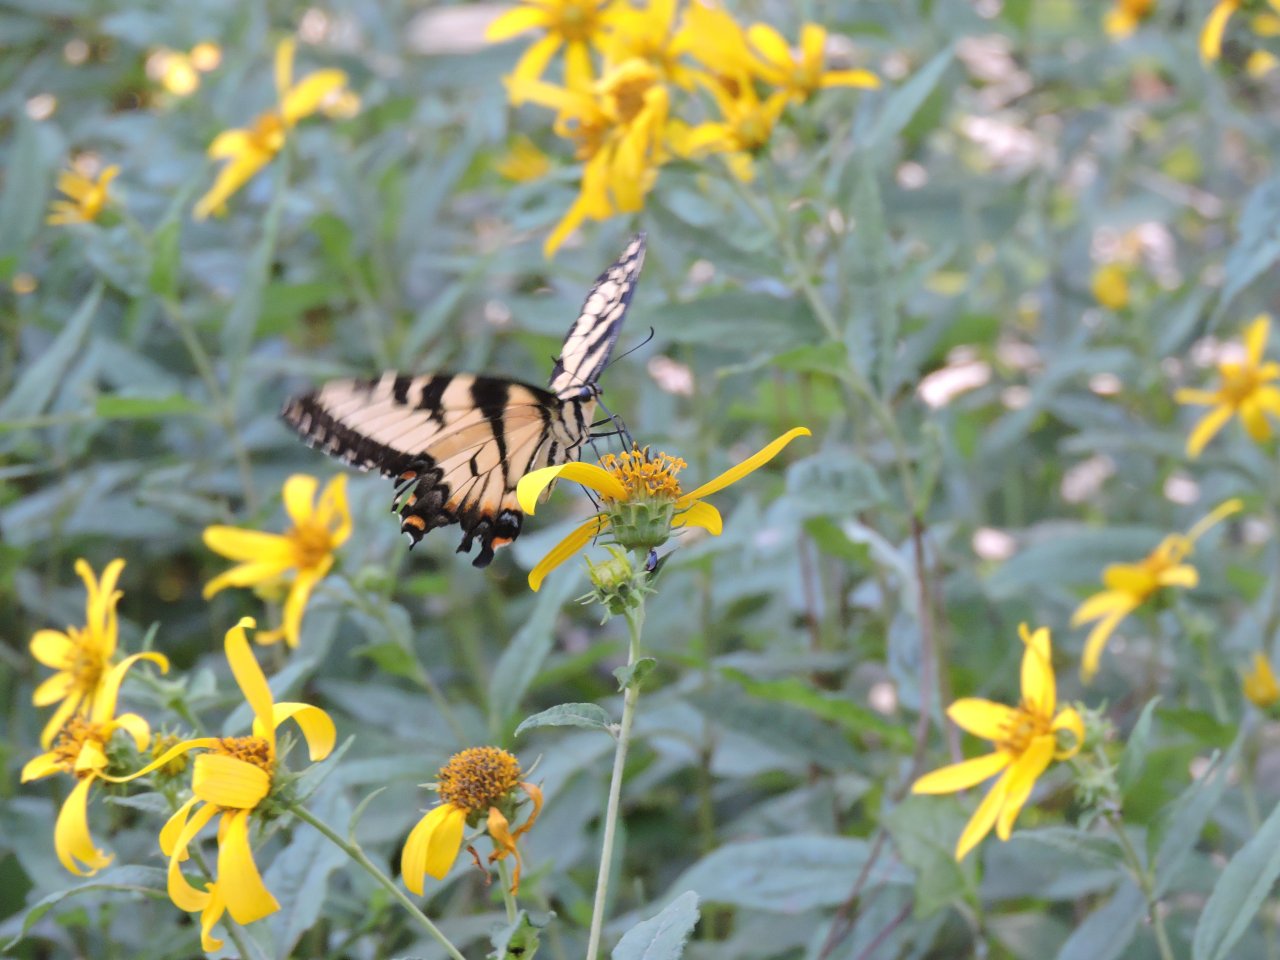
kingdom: Animalia
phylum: Arthropoda
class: Insecta
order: Lepidoptera
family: Papilionidae
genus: Pterourus
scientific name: Pterourus glaucus
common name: Eastern Tiger Swallowtail
